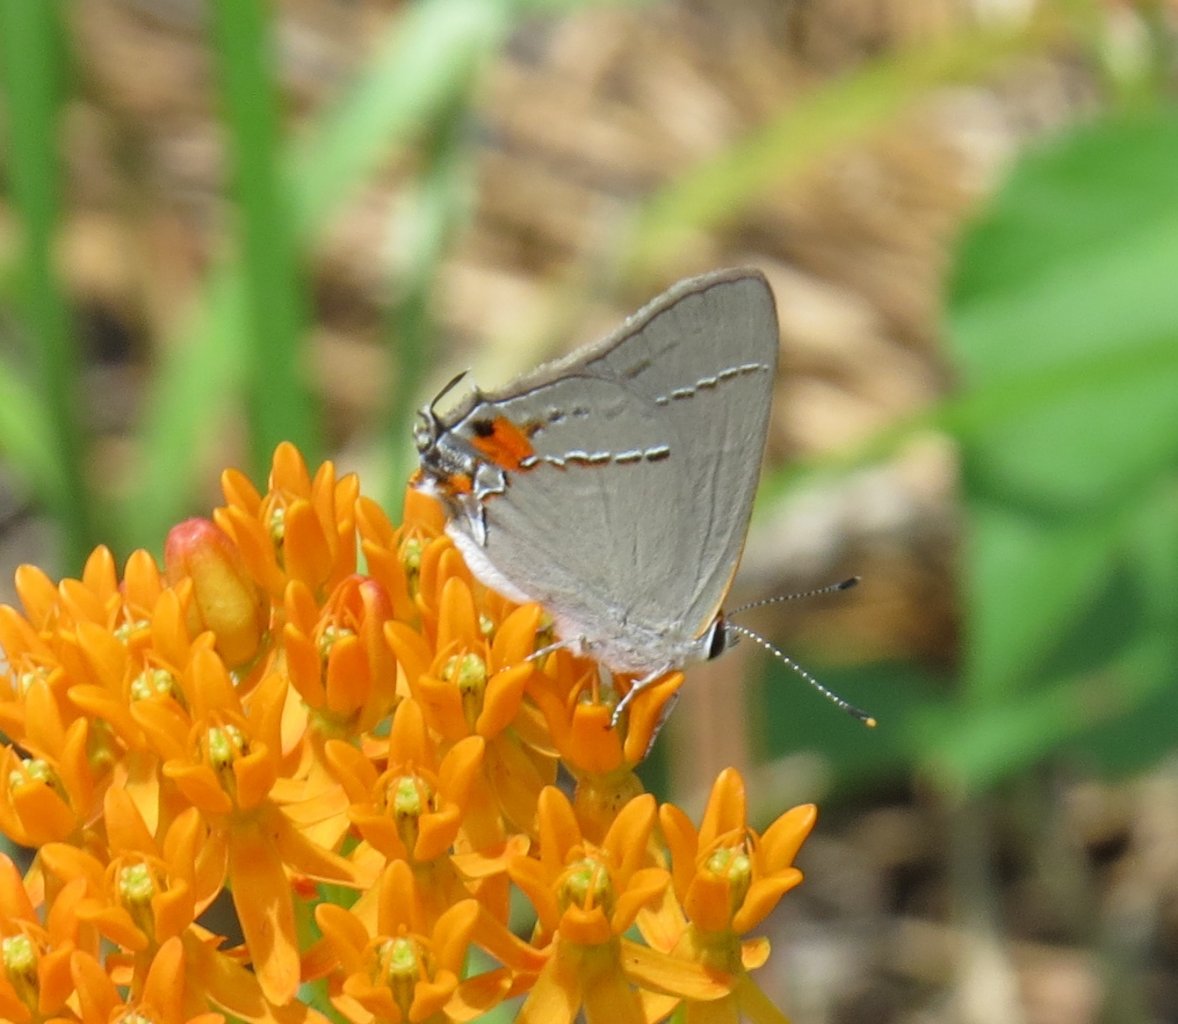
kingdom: Animalia
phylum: Arthropoda
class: Insecta
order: Lepidoptera
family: Lycaenidae
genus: Strymon
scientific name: Strymon melinus
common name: Gray Hairstreak
